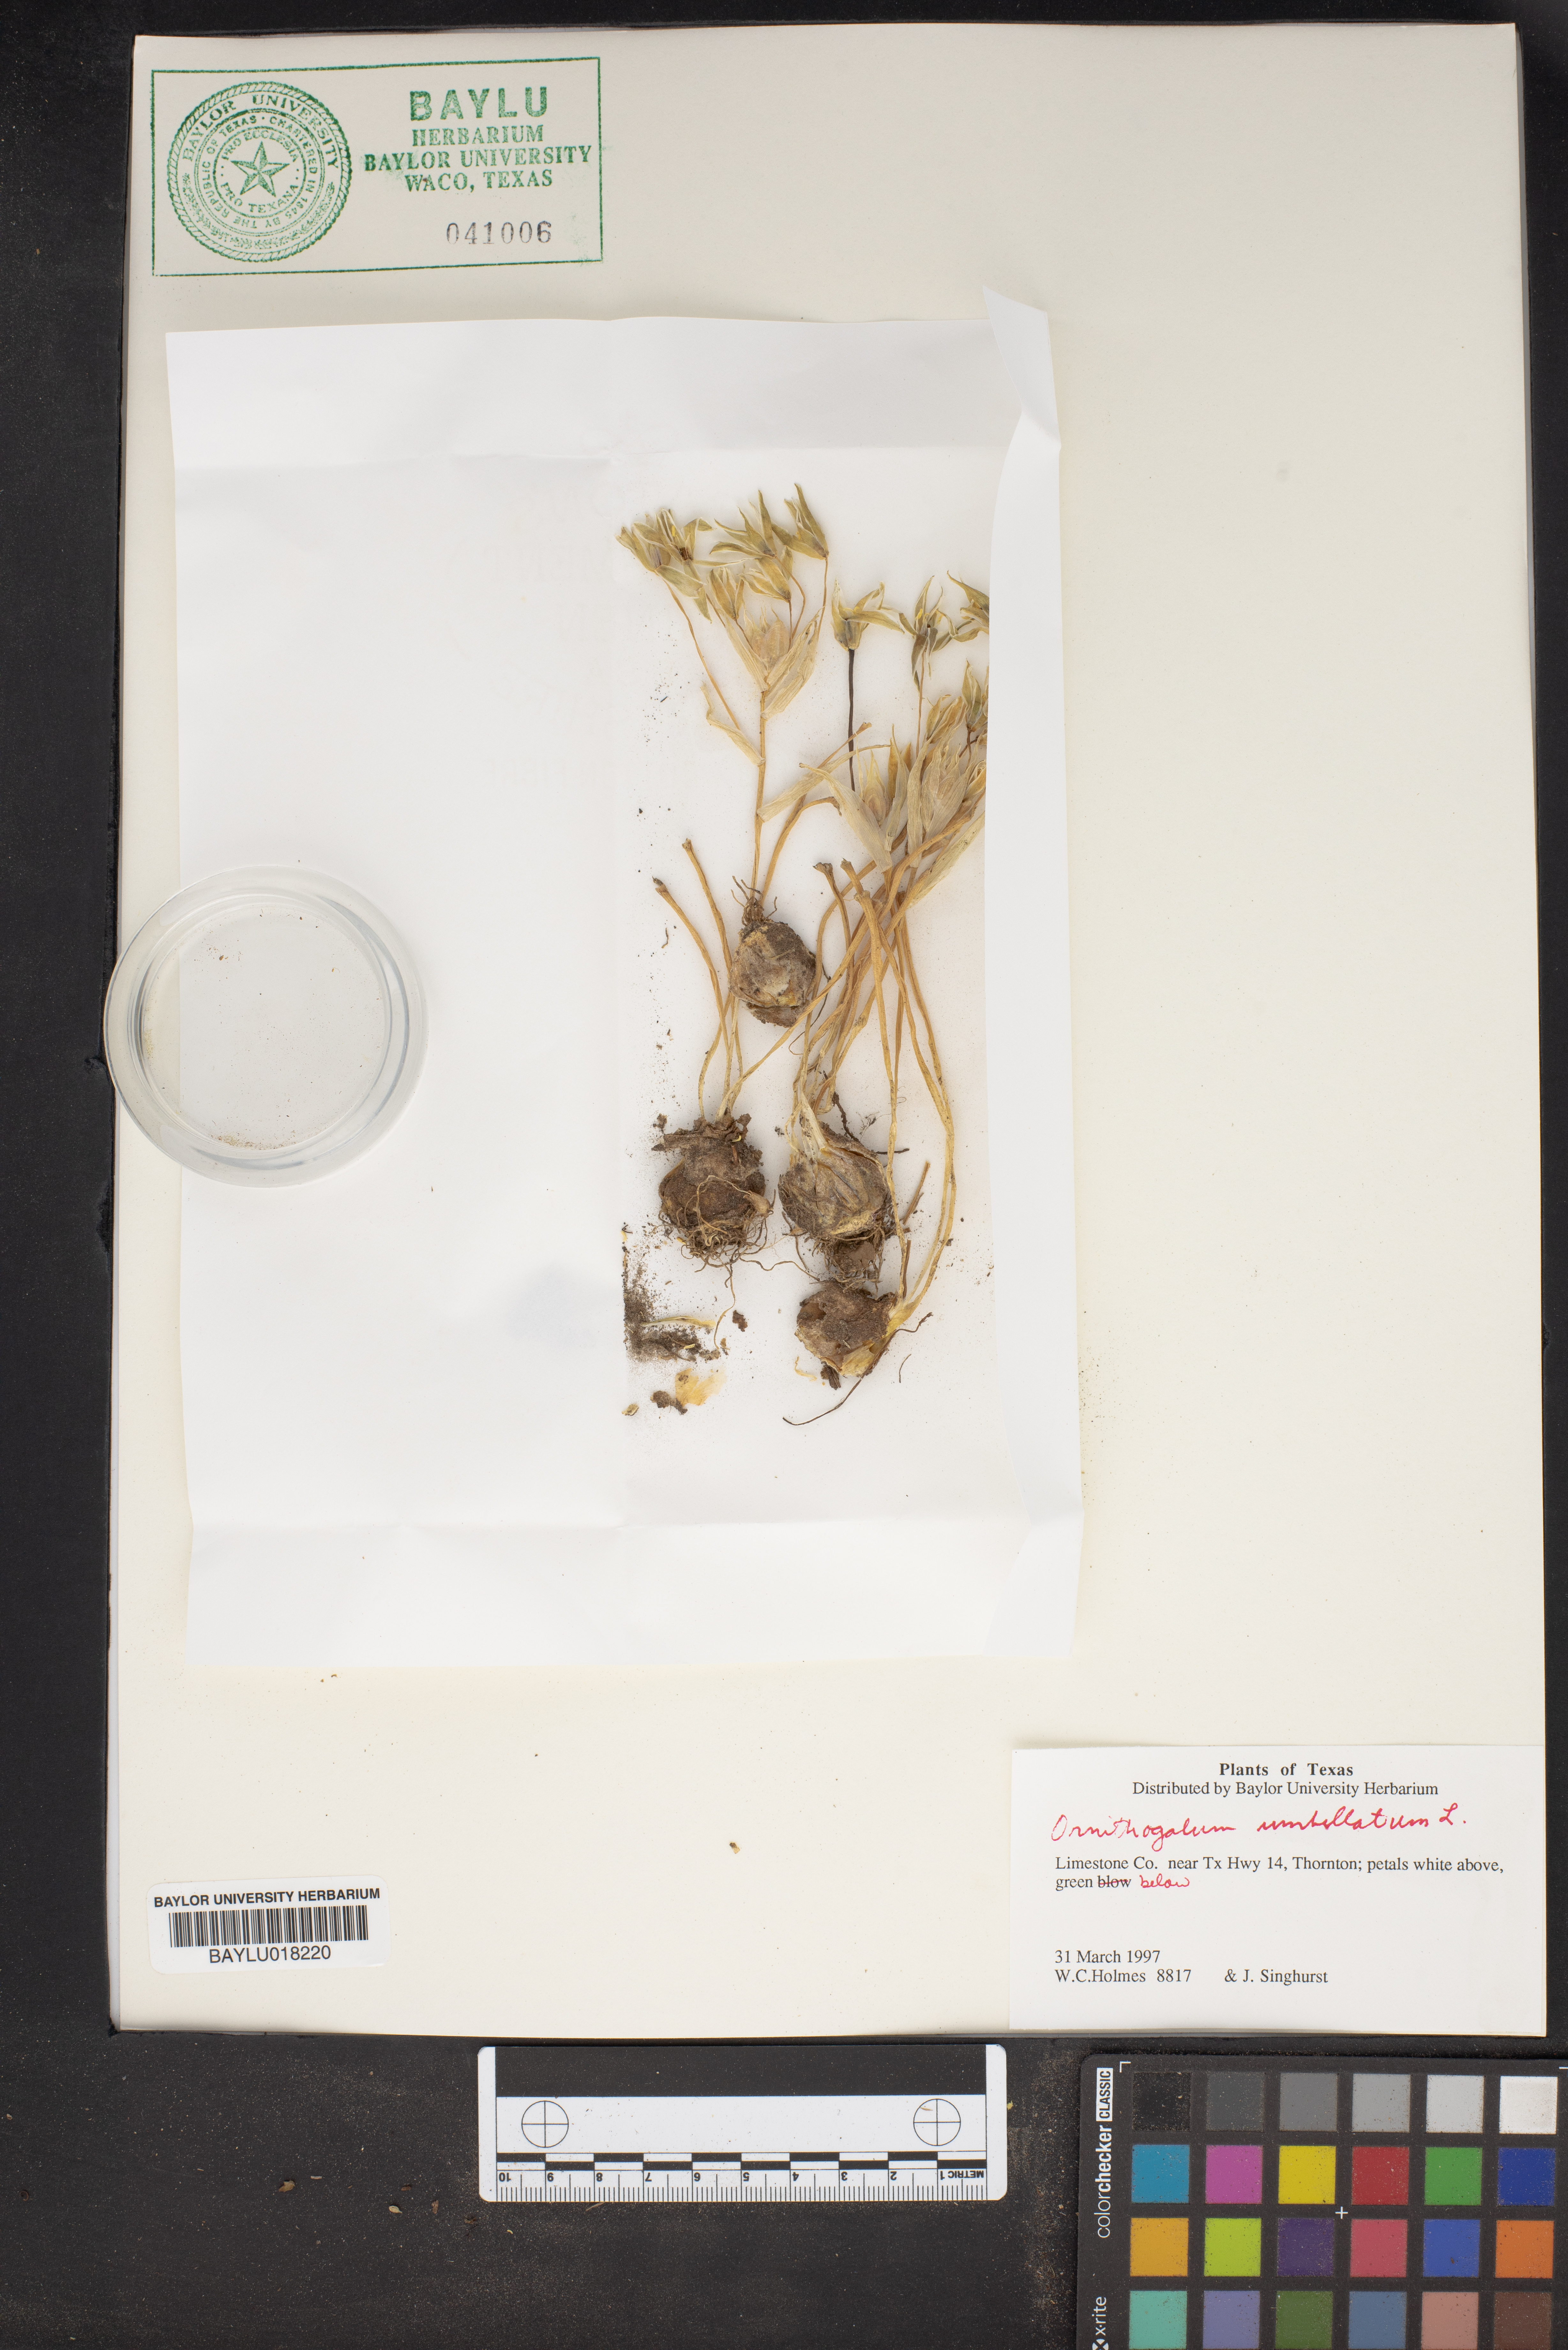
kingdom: Plantae
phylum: Tracheophyta
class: Liliopsida
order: Asparagales
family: Asparagaceae
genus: Ornithogalum
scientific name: Ornithogalum umbellatum
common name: Garden star-of-bethlehem
